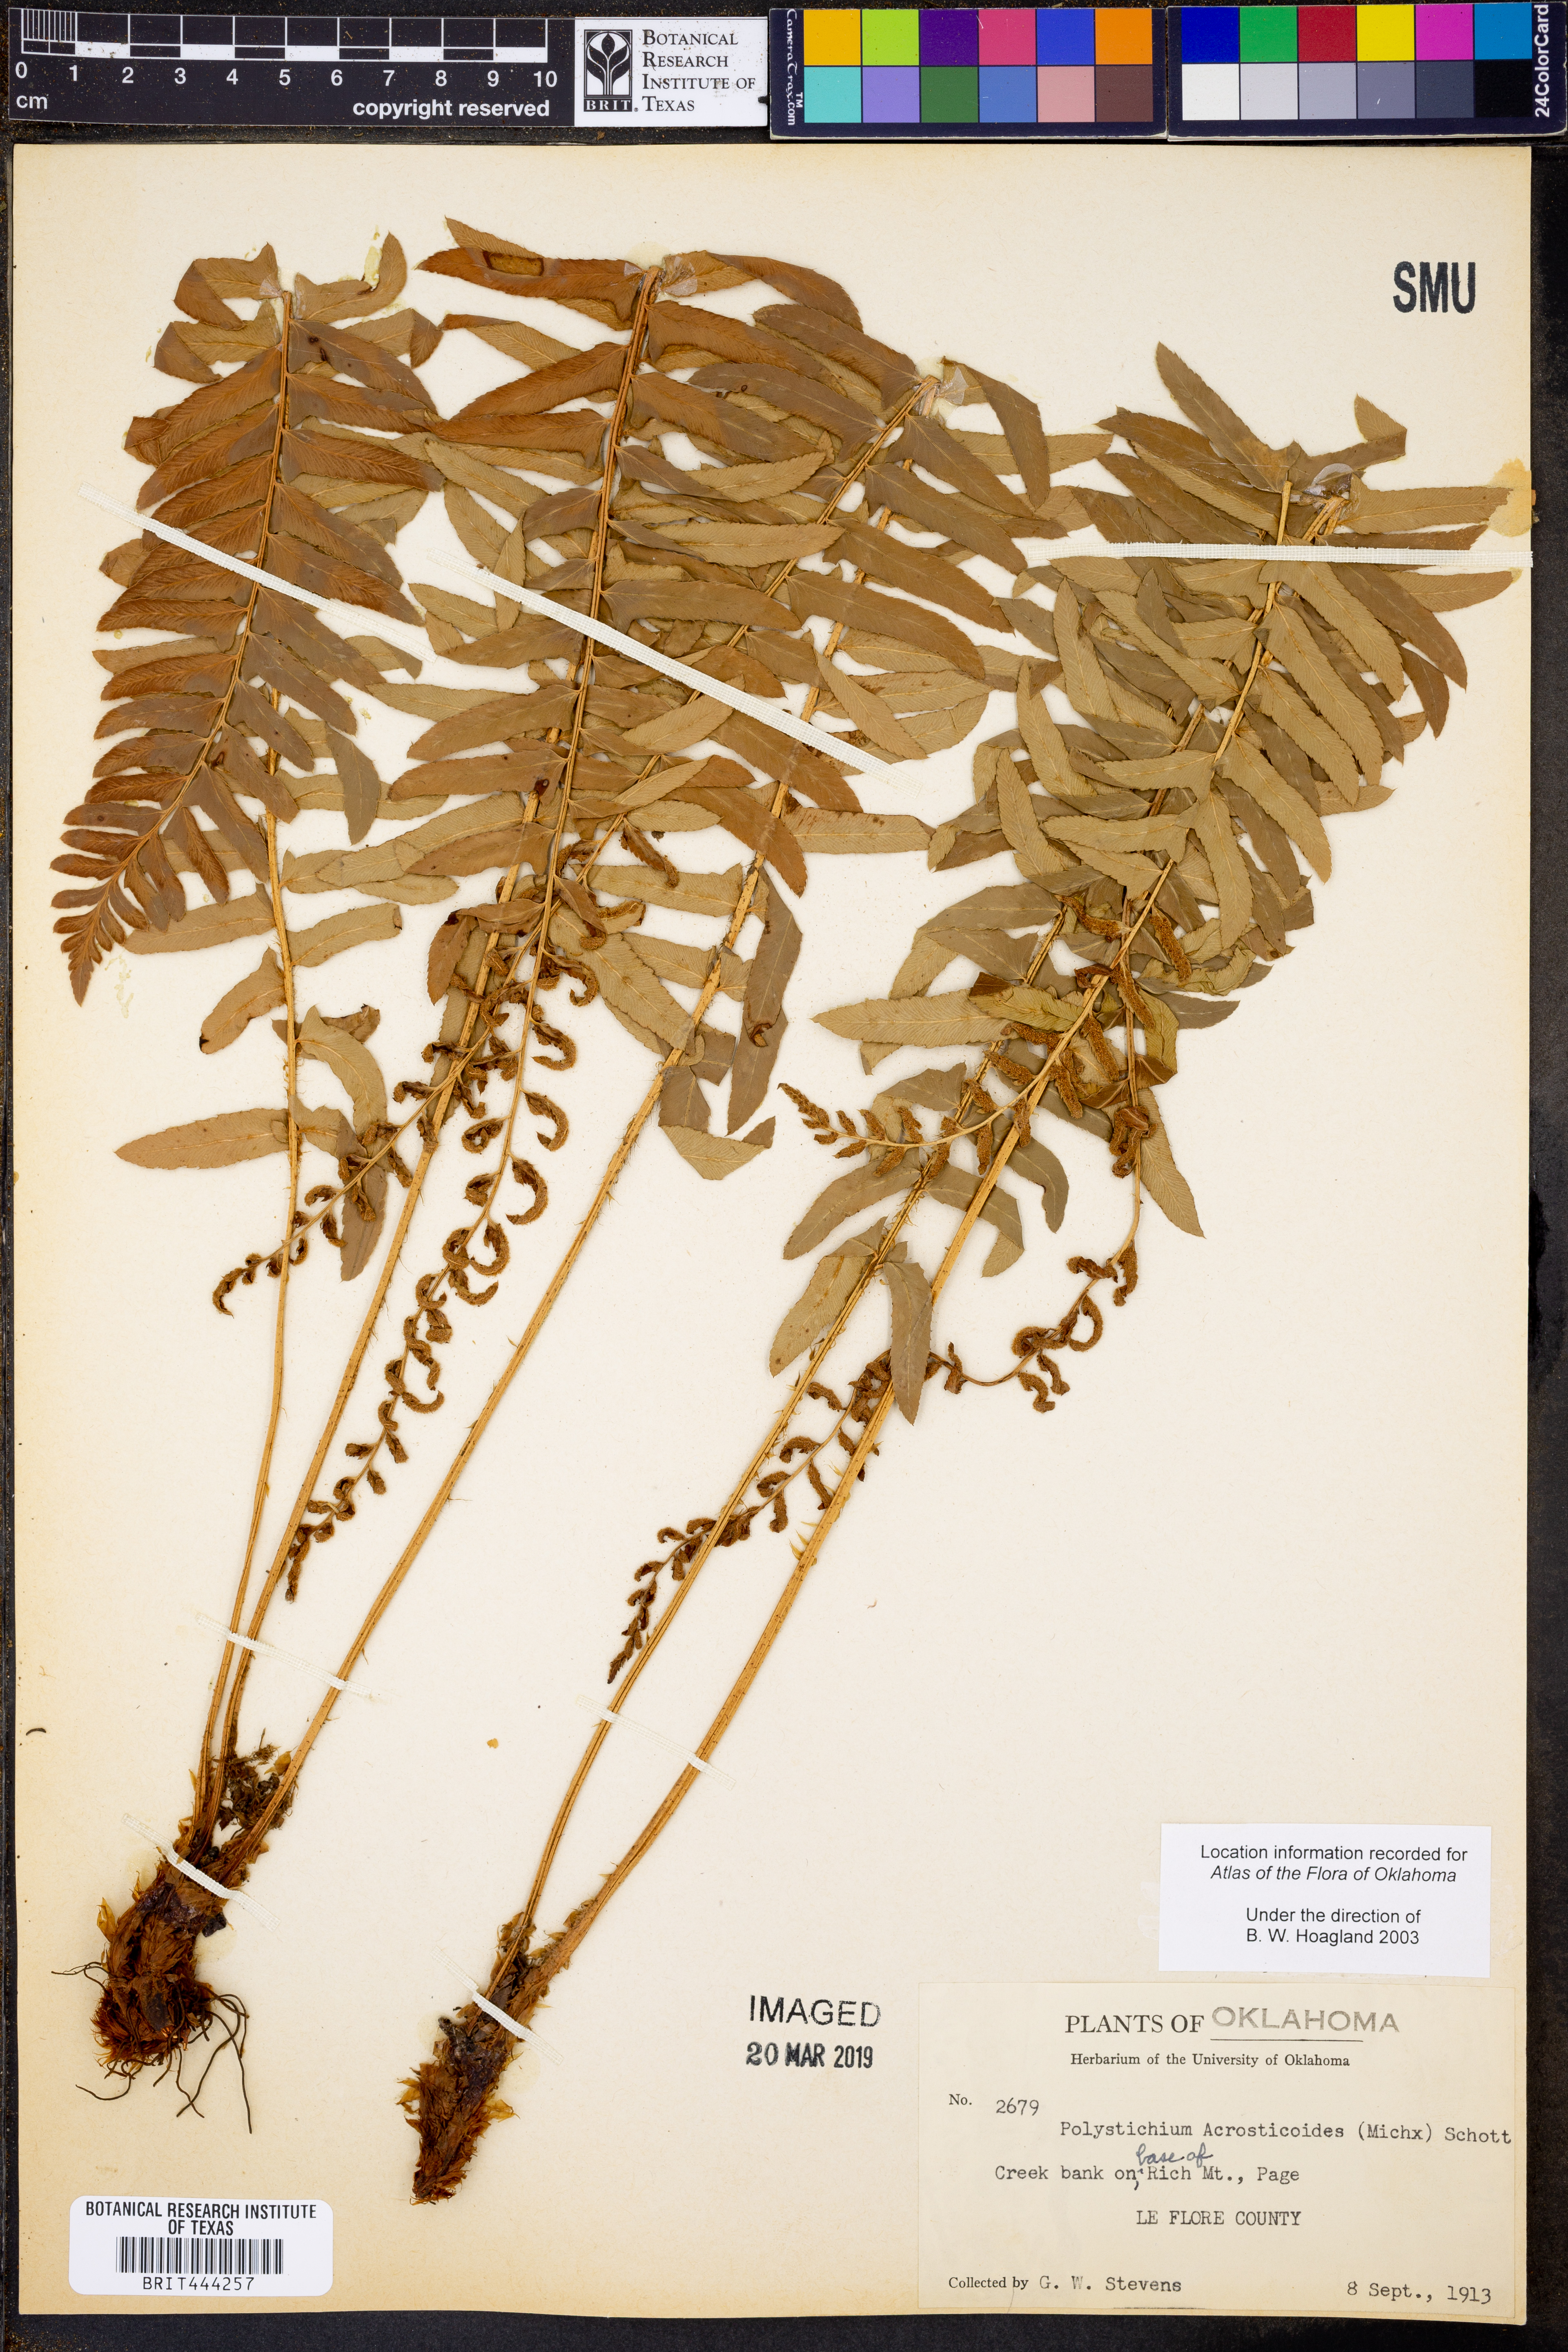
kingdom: Plantae
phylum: Tracheophyta
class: Polypodiopsida
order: Polypodiales
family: Dryopteridaceae
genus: Polystichum
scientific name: Polystichum acrostichoides
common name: Christmas fern
